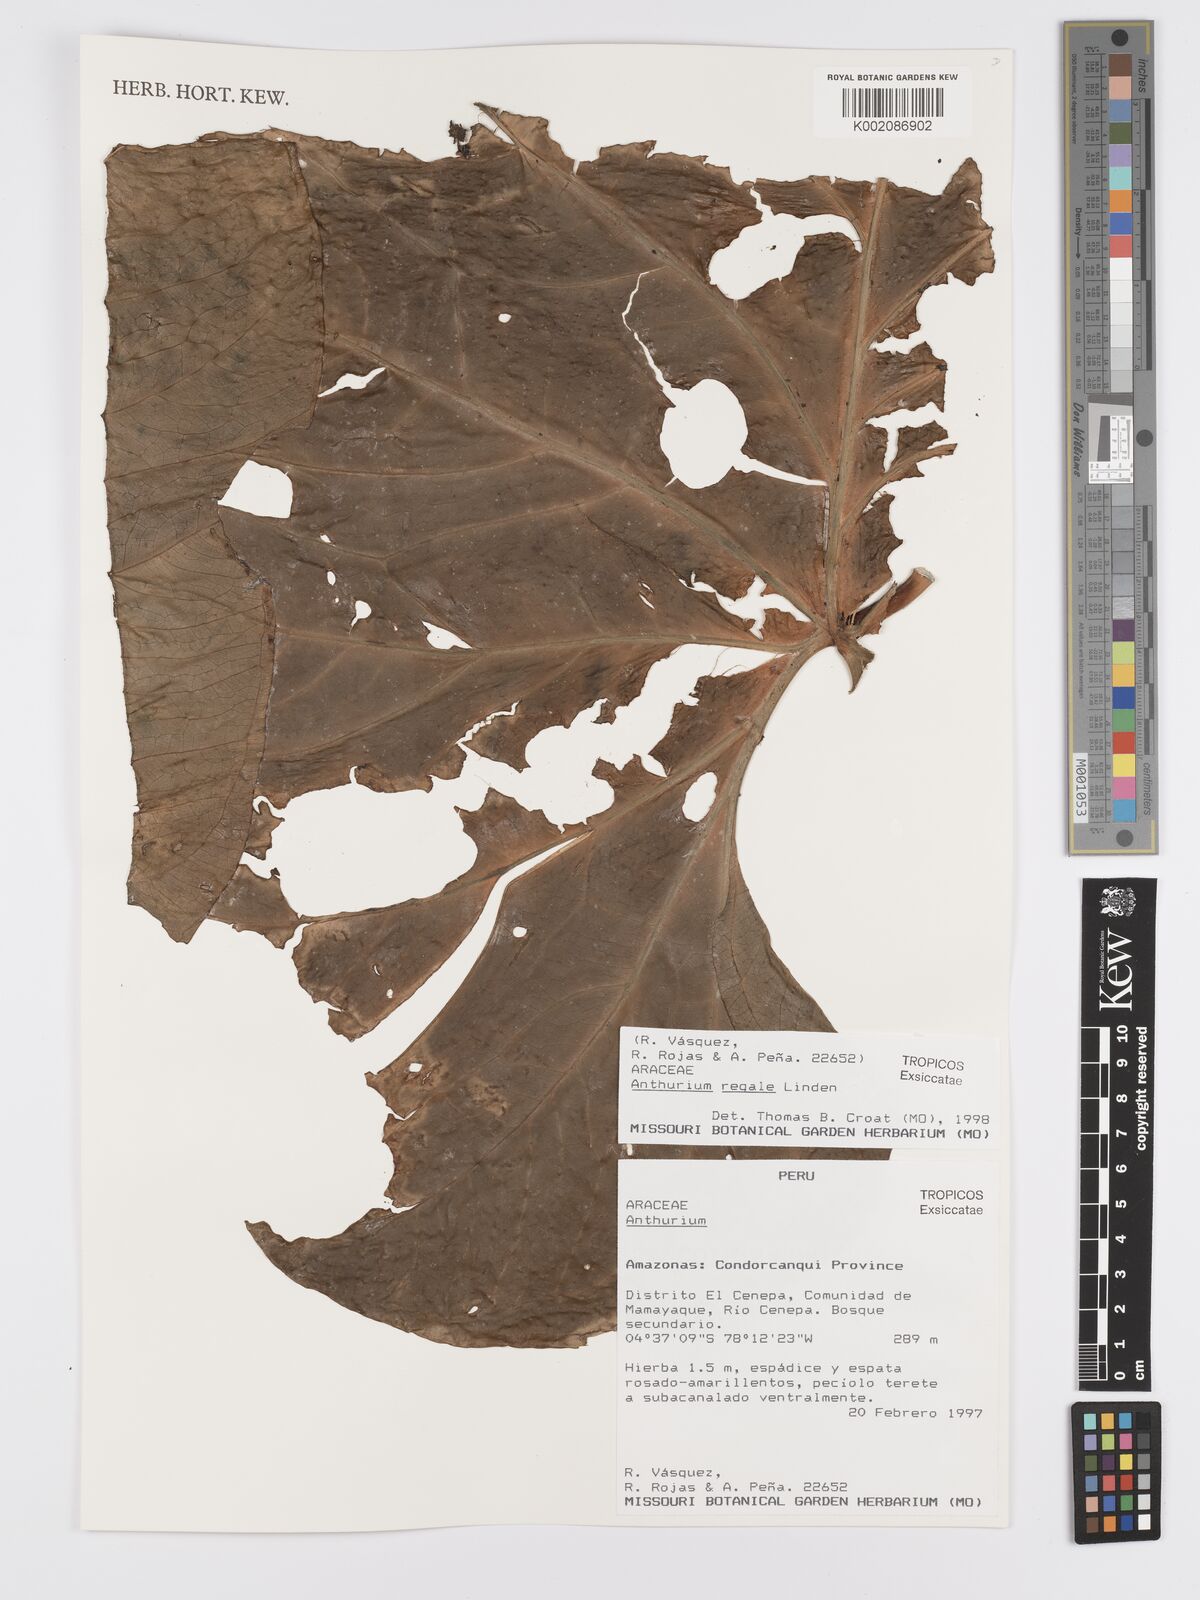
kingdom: Plantae
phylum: Tracheophyta
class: Liliopsida
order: Alismatales
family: Araceae
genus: Anthurium
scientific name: Anthurium regale
